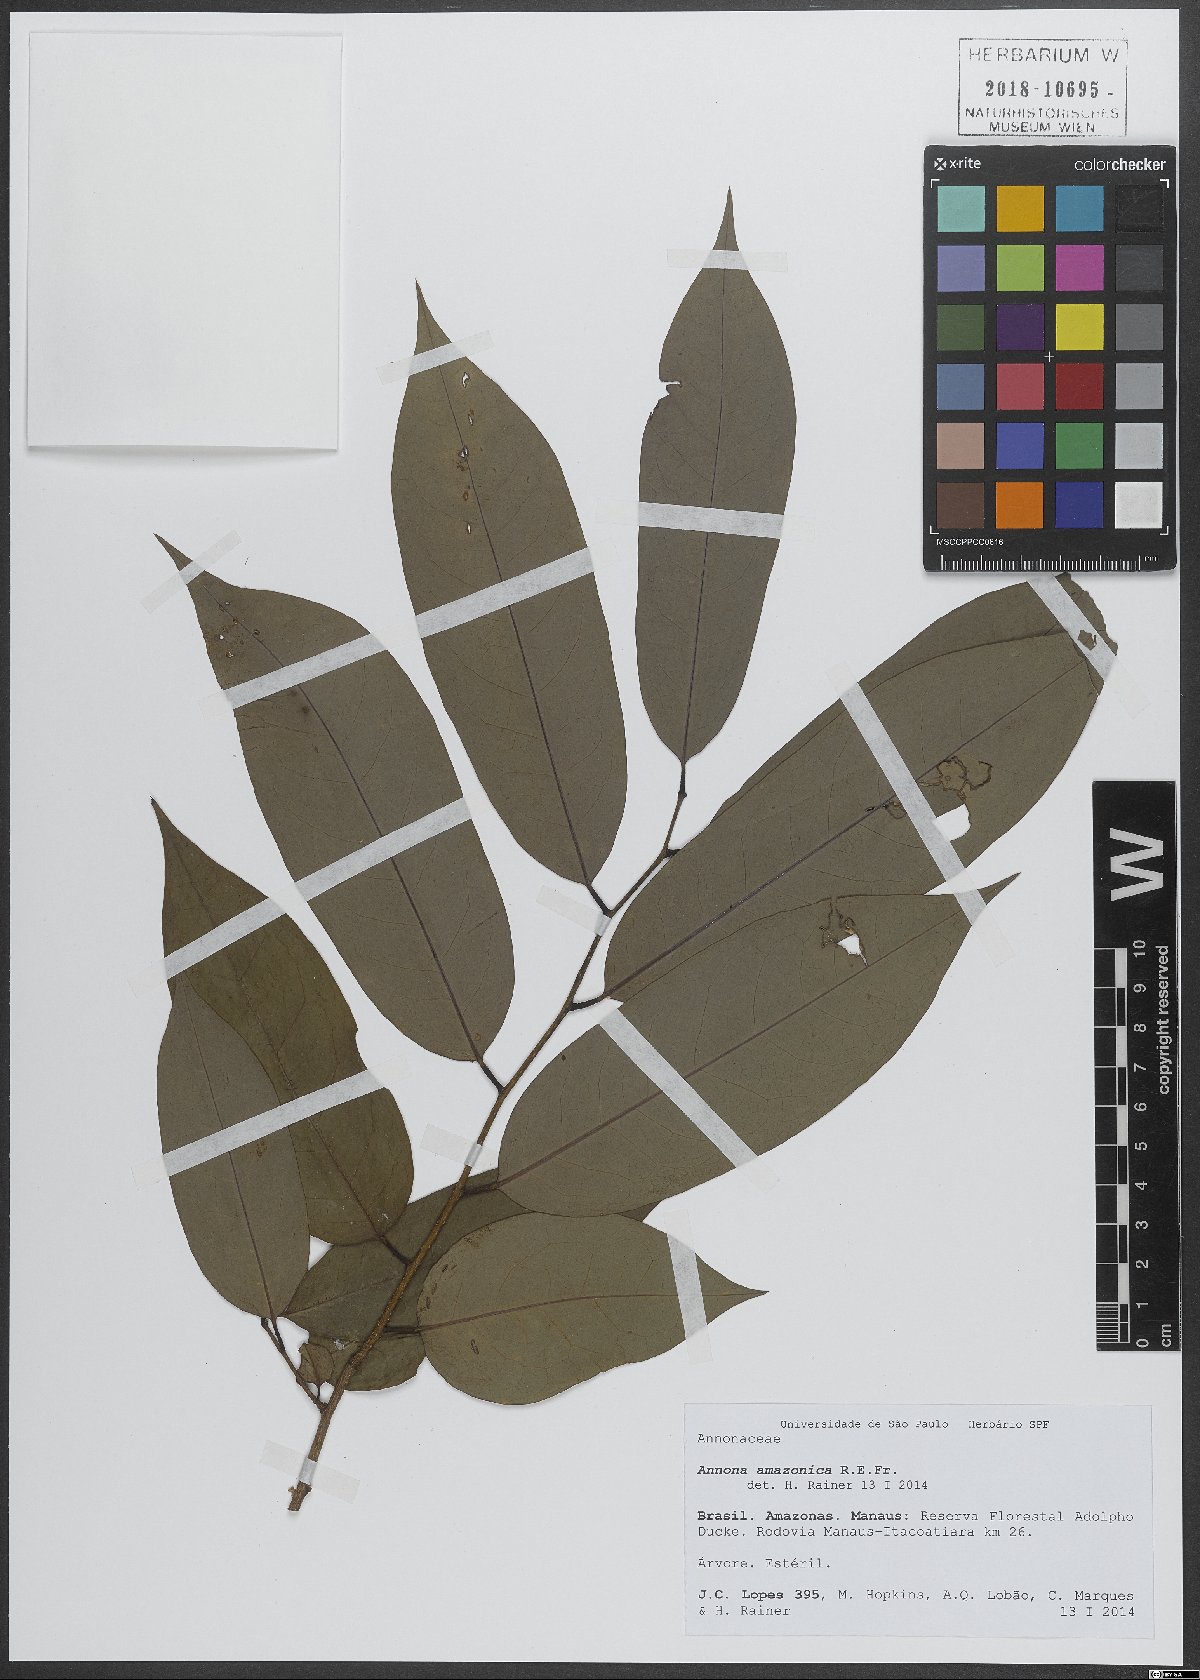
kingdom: Plantae
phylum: Tracheophyta
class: Magnoliopsida
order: Magnoliales
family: Annonaceae
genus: Annona
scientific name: Annona amazonica
